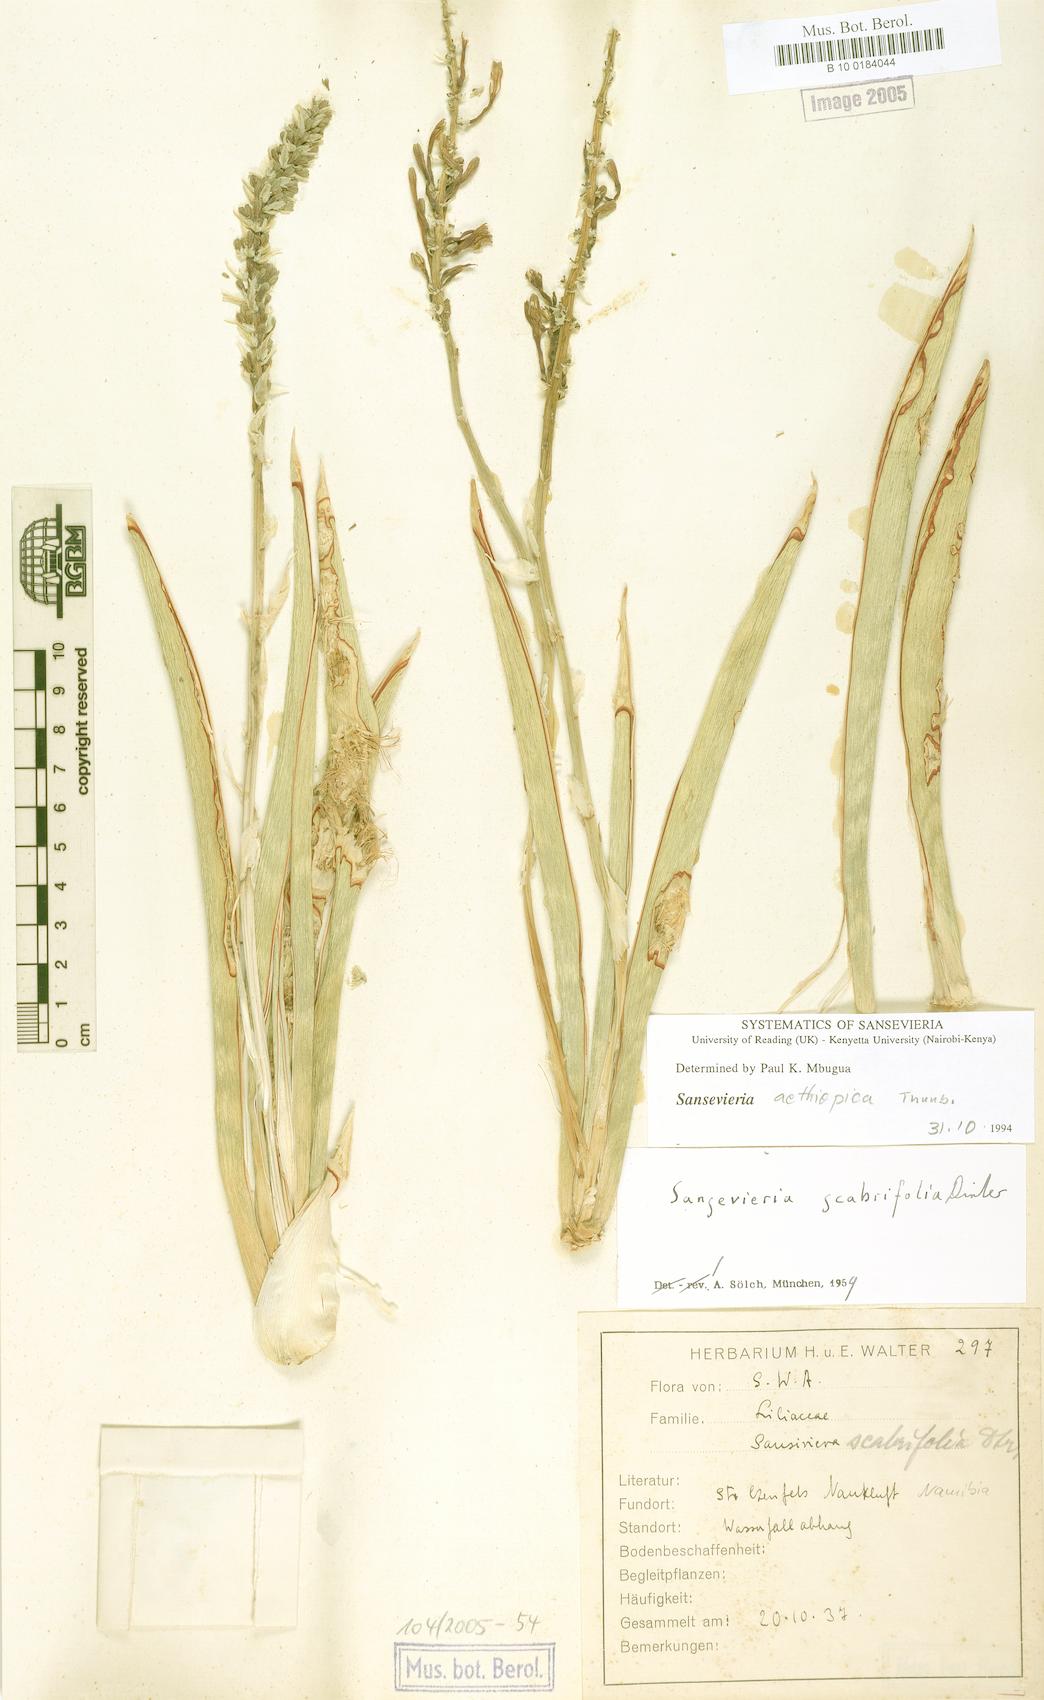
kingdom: Plantae
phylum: Tracheophyta
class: Liliopsida
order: Asparagales
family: Asparagaceae
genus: Dracaena
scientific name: Dracaena aethiopica
